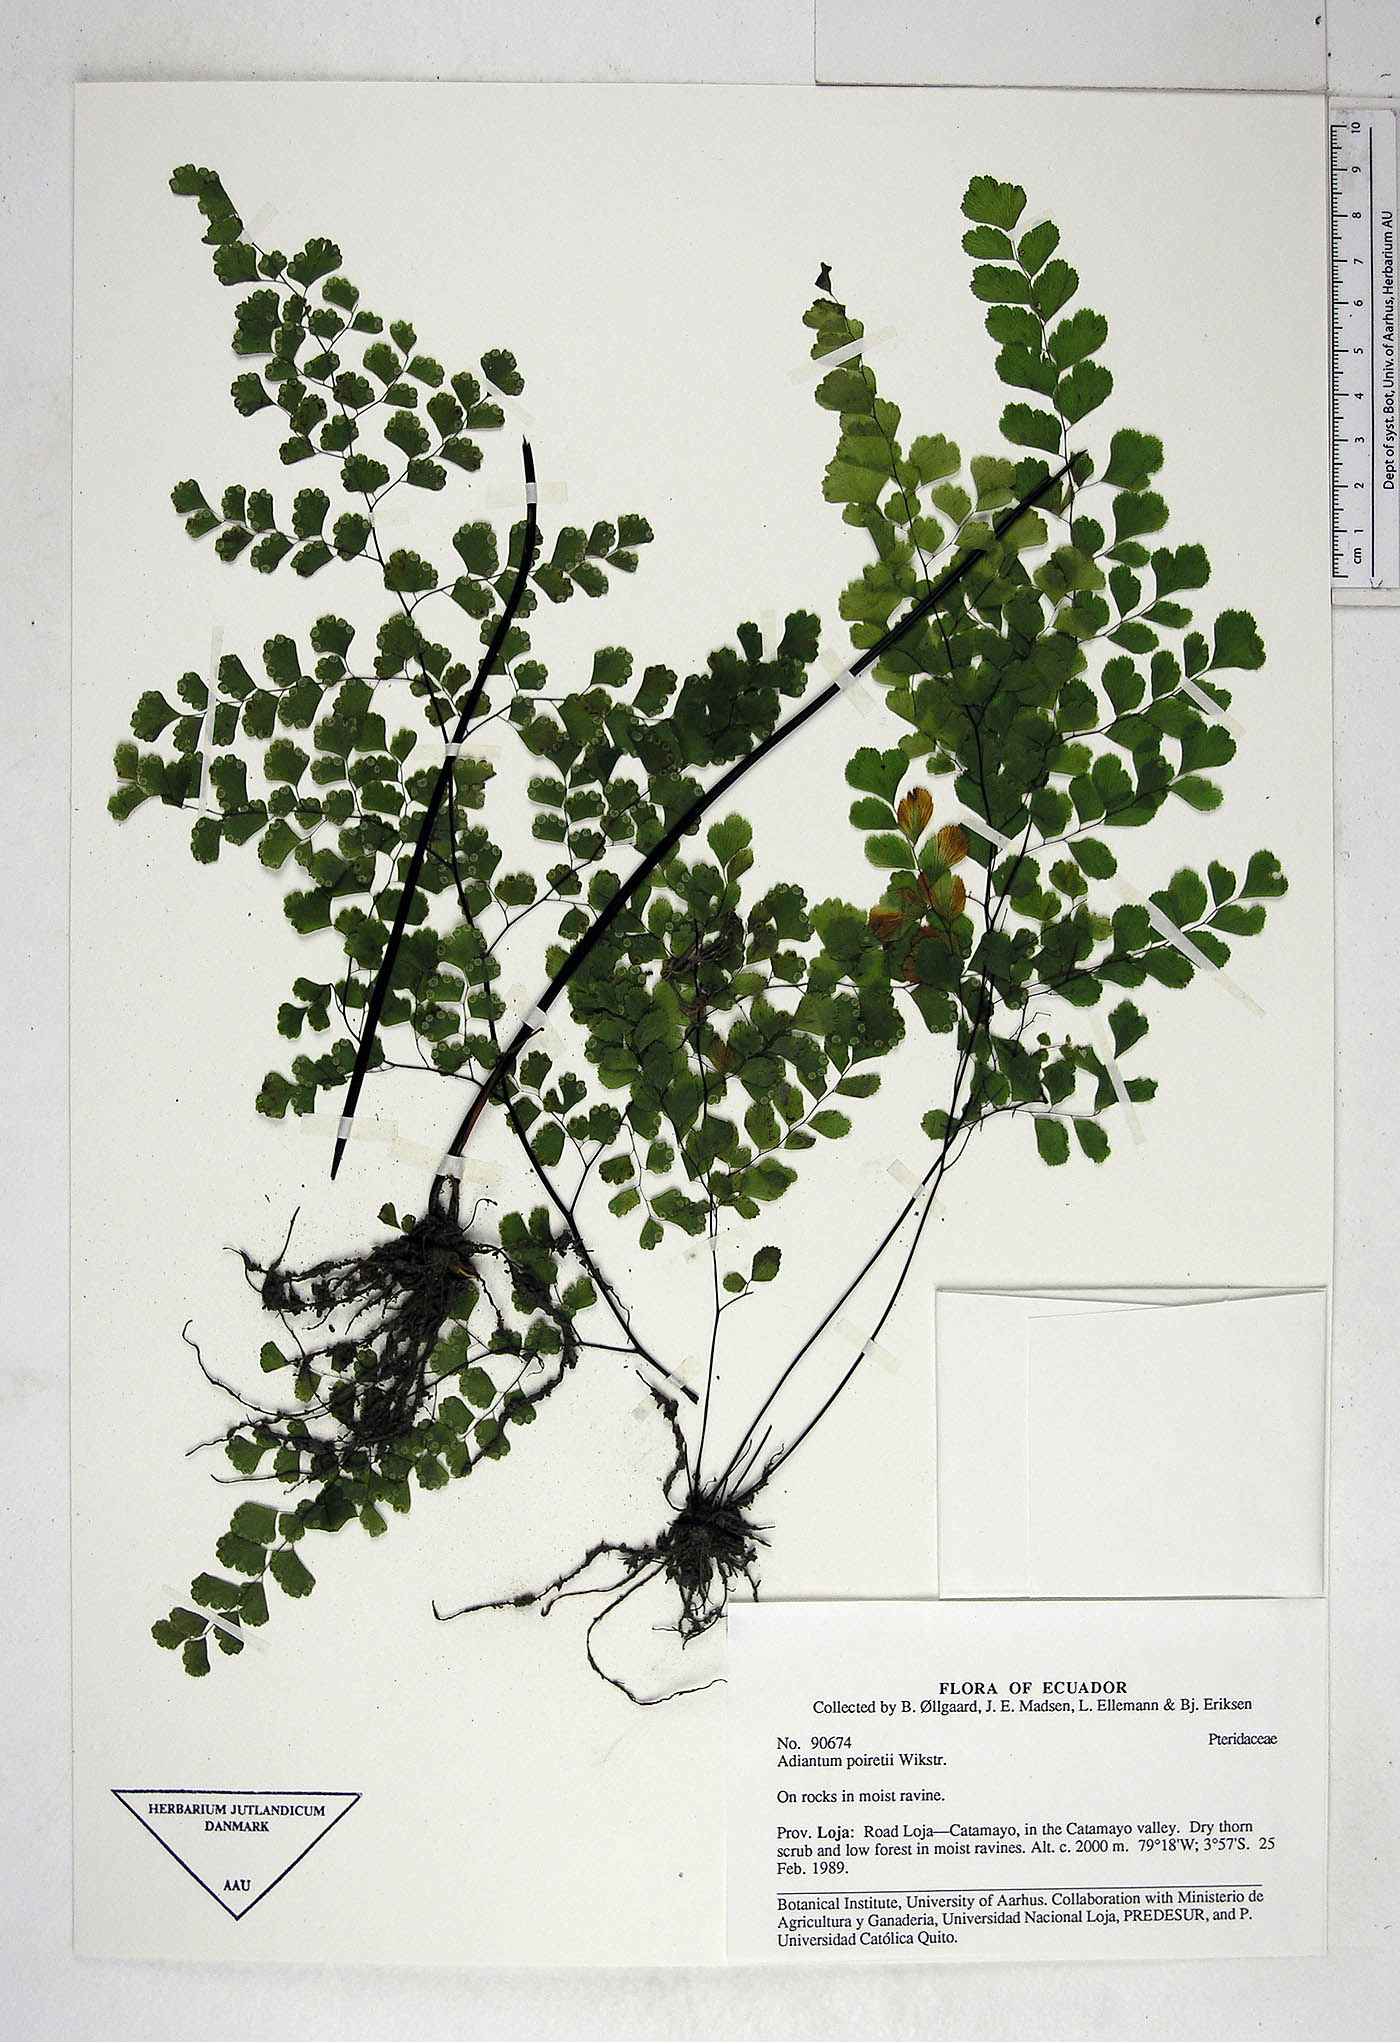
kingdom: Plantae
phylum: Tracheophyta
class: Polypodiopsida
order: Polypodiales
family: Pteridaceae
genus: Adiantum
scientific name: Adiantum poiretii
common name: Mexican maidenhair
